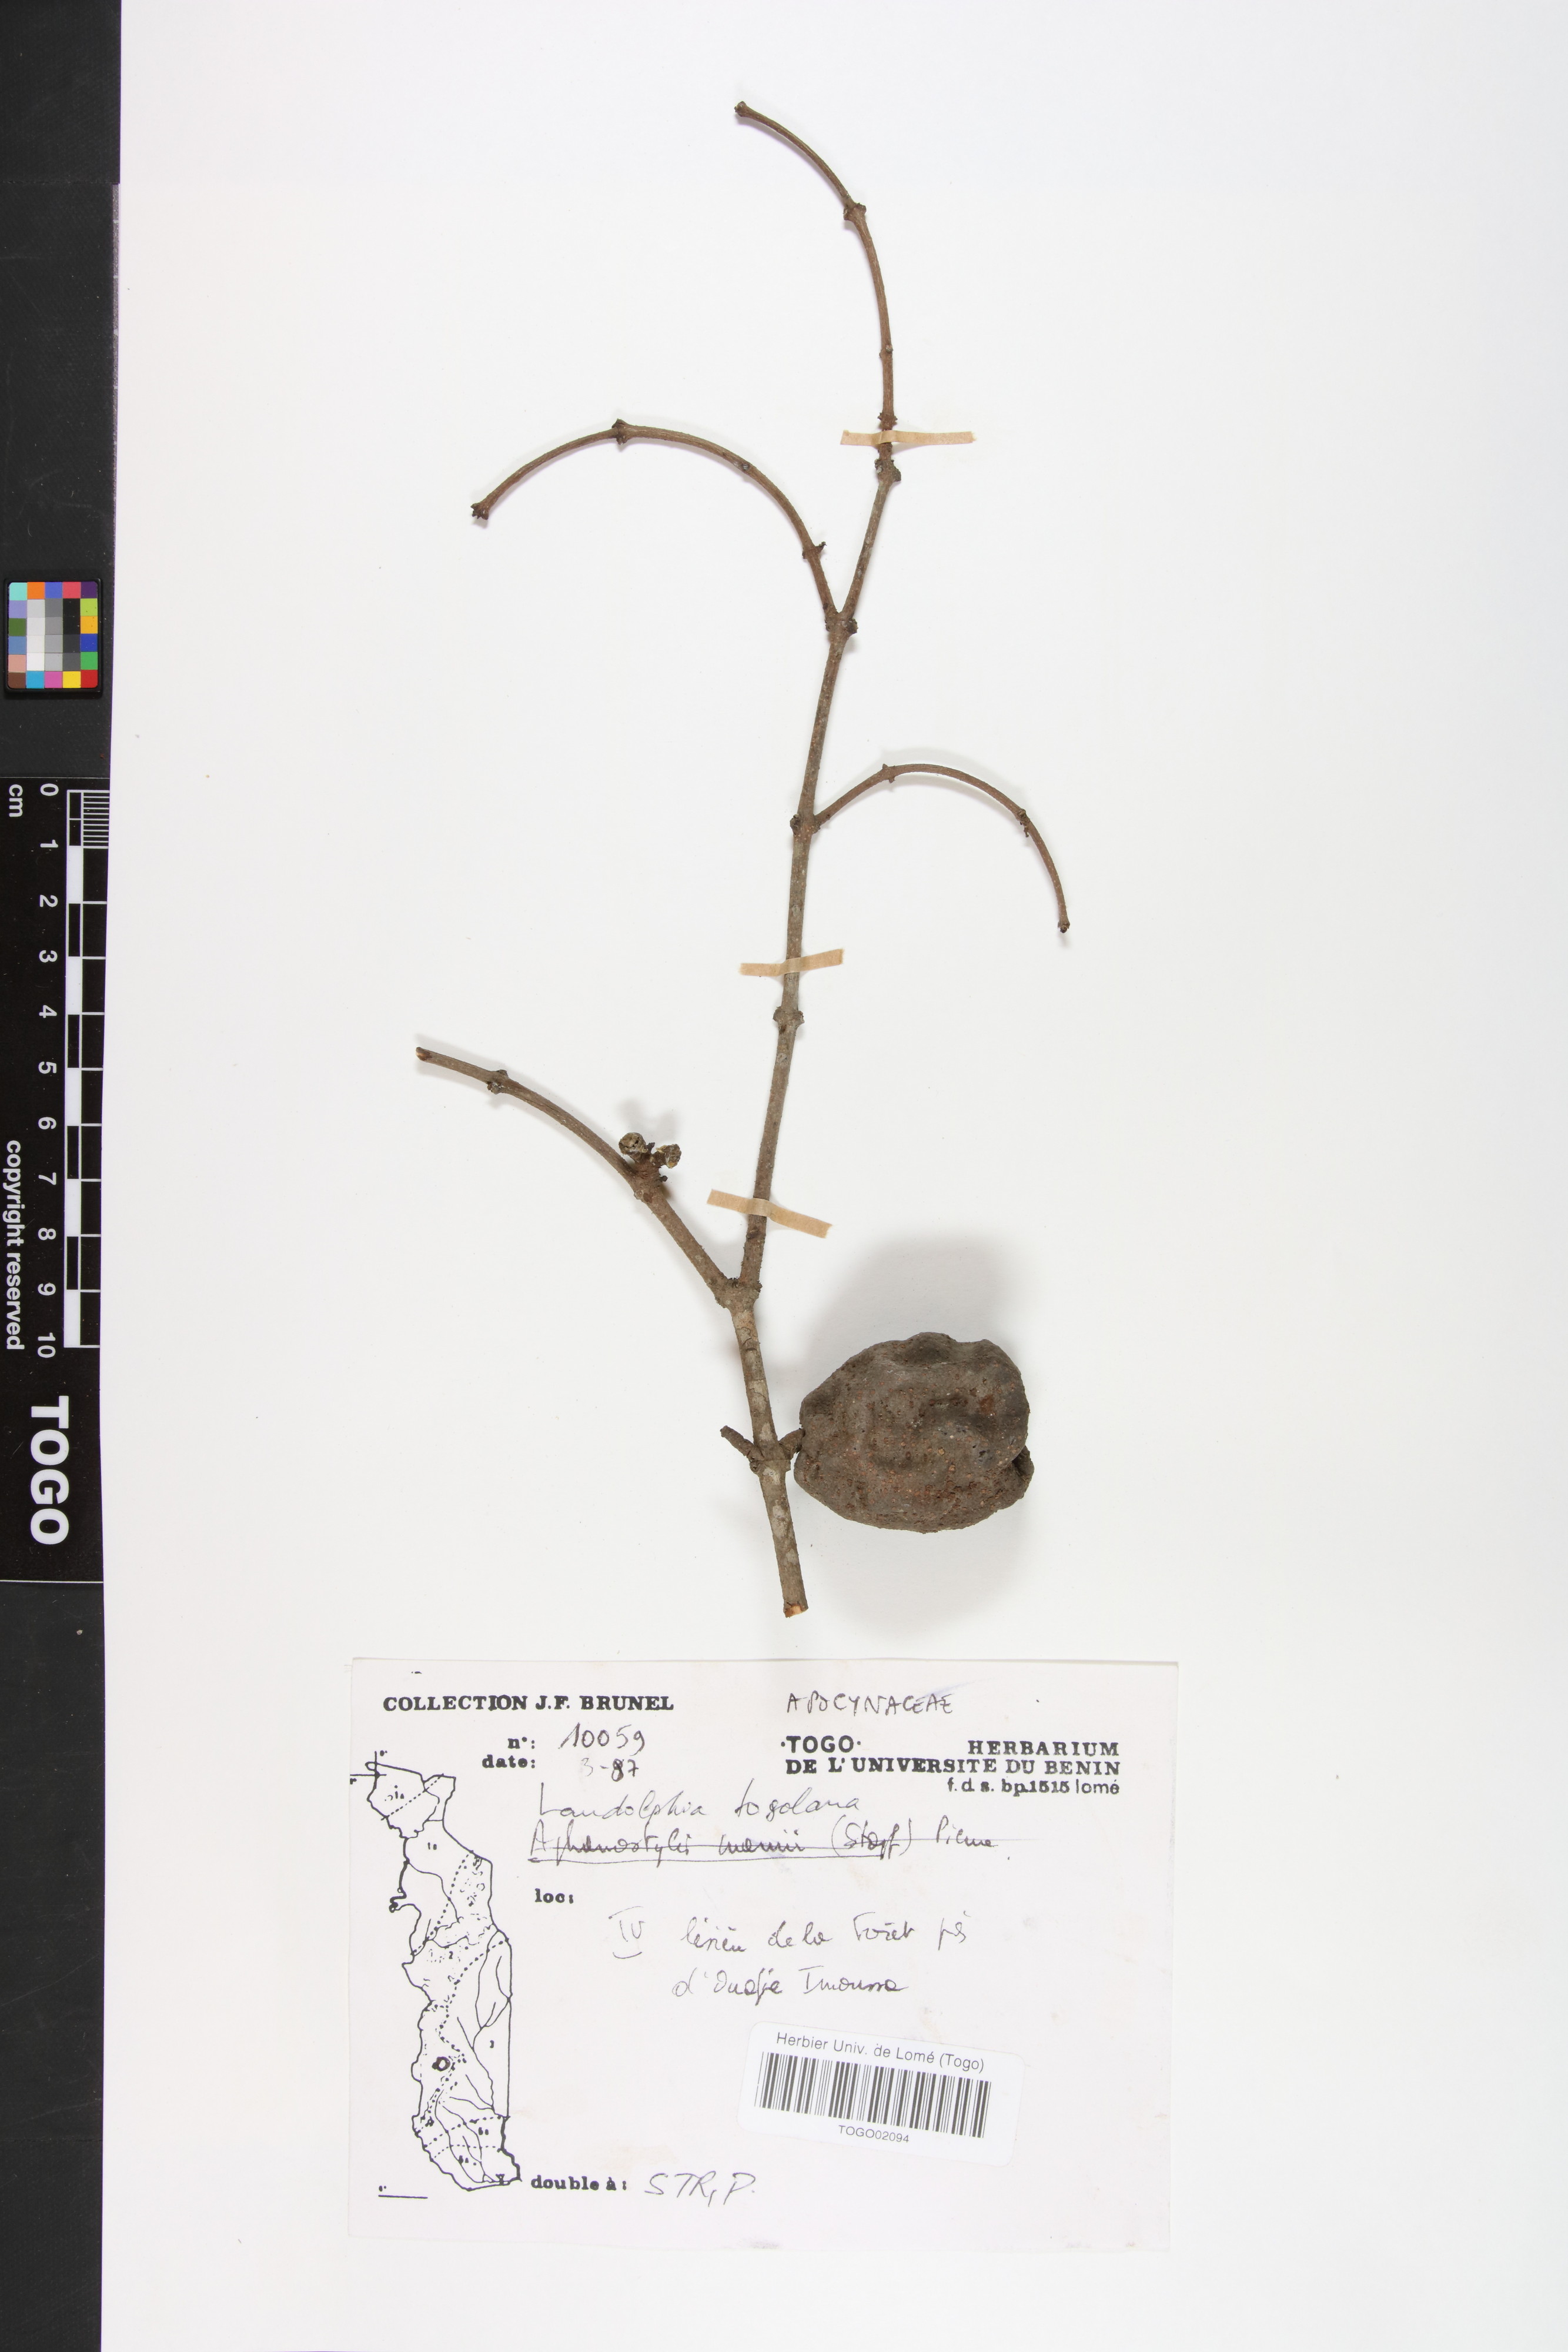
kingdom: Plantae
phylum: Tracheophyta
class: Magnoliopsida
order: Gentianales
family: Apocynaceae
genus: Landolphia
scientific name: Landolphia togolana
